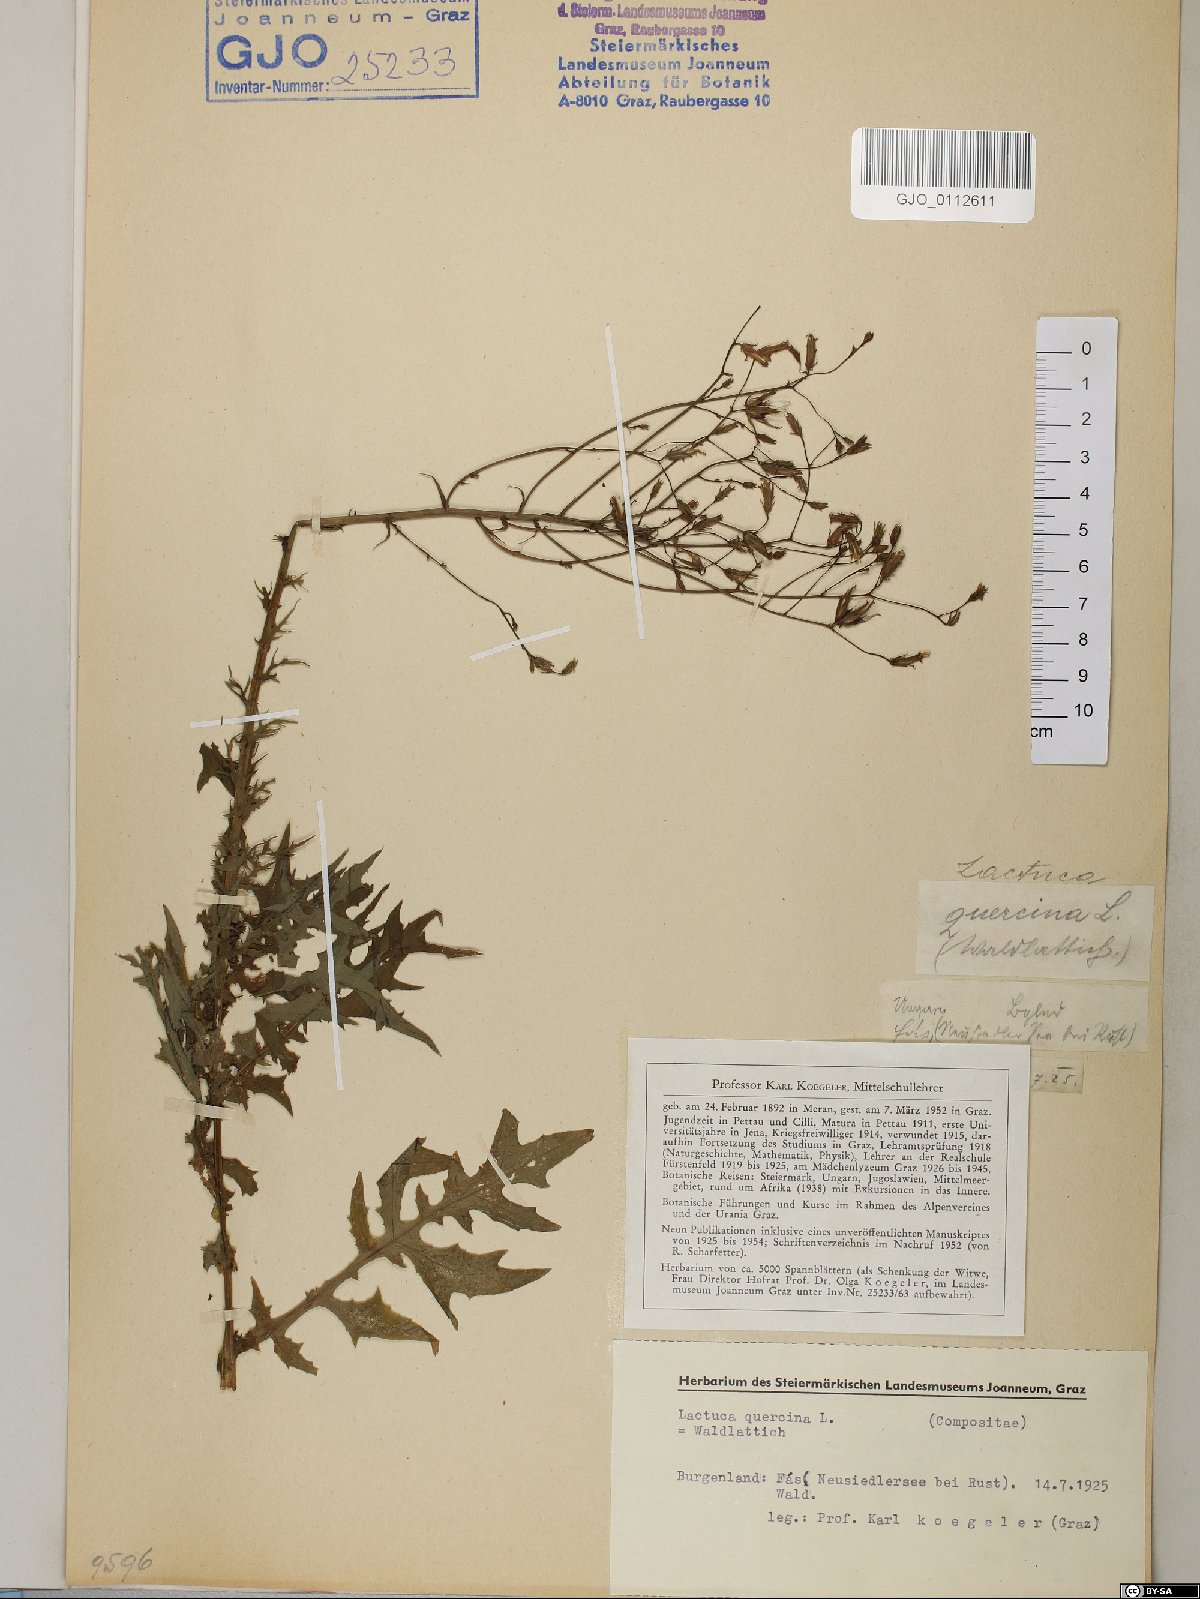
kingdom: Plantae
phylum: Tracheophyta
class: Magnoliopsida
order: Asterales
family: Asteraceae
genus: Lactuca
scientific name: Lactuca quercina
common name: Wild lettuce
